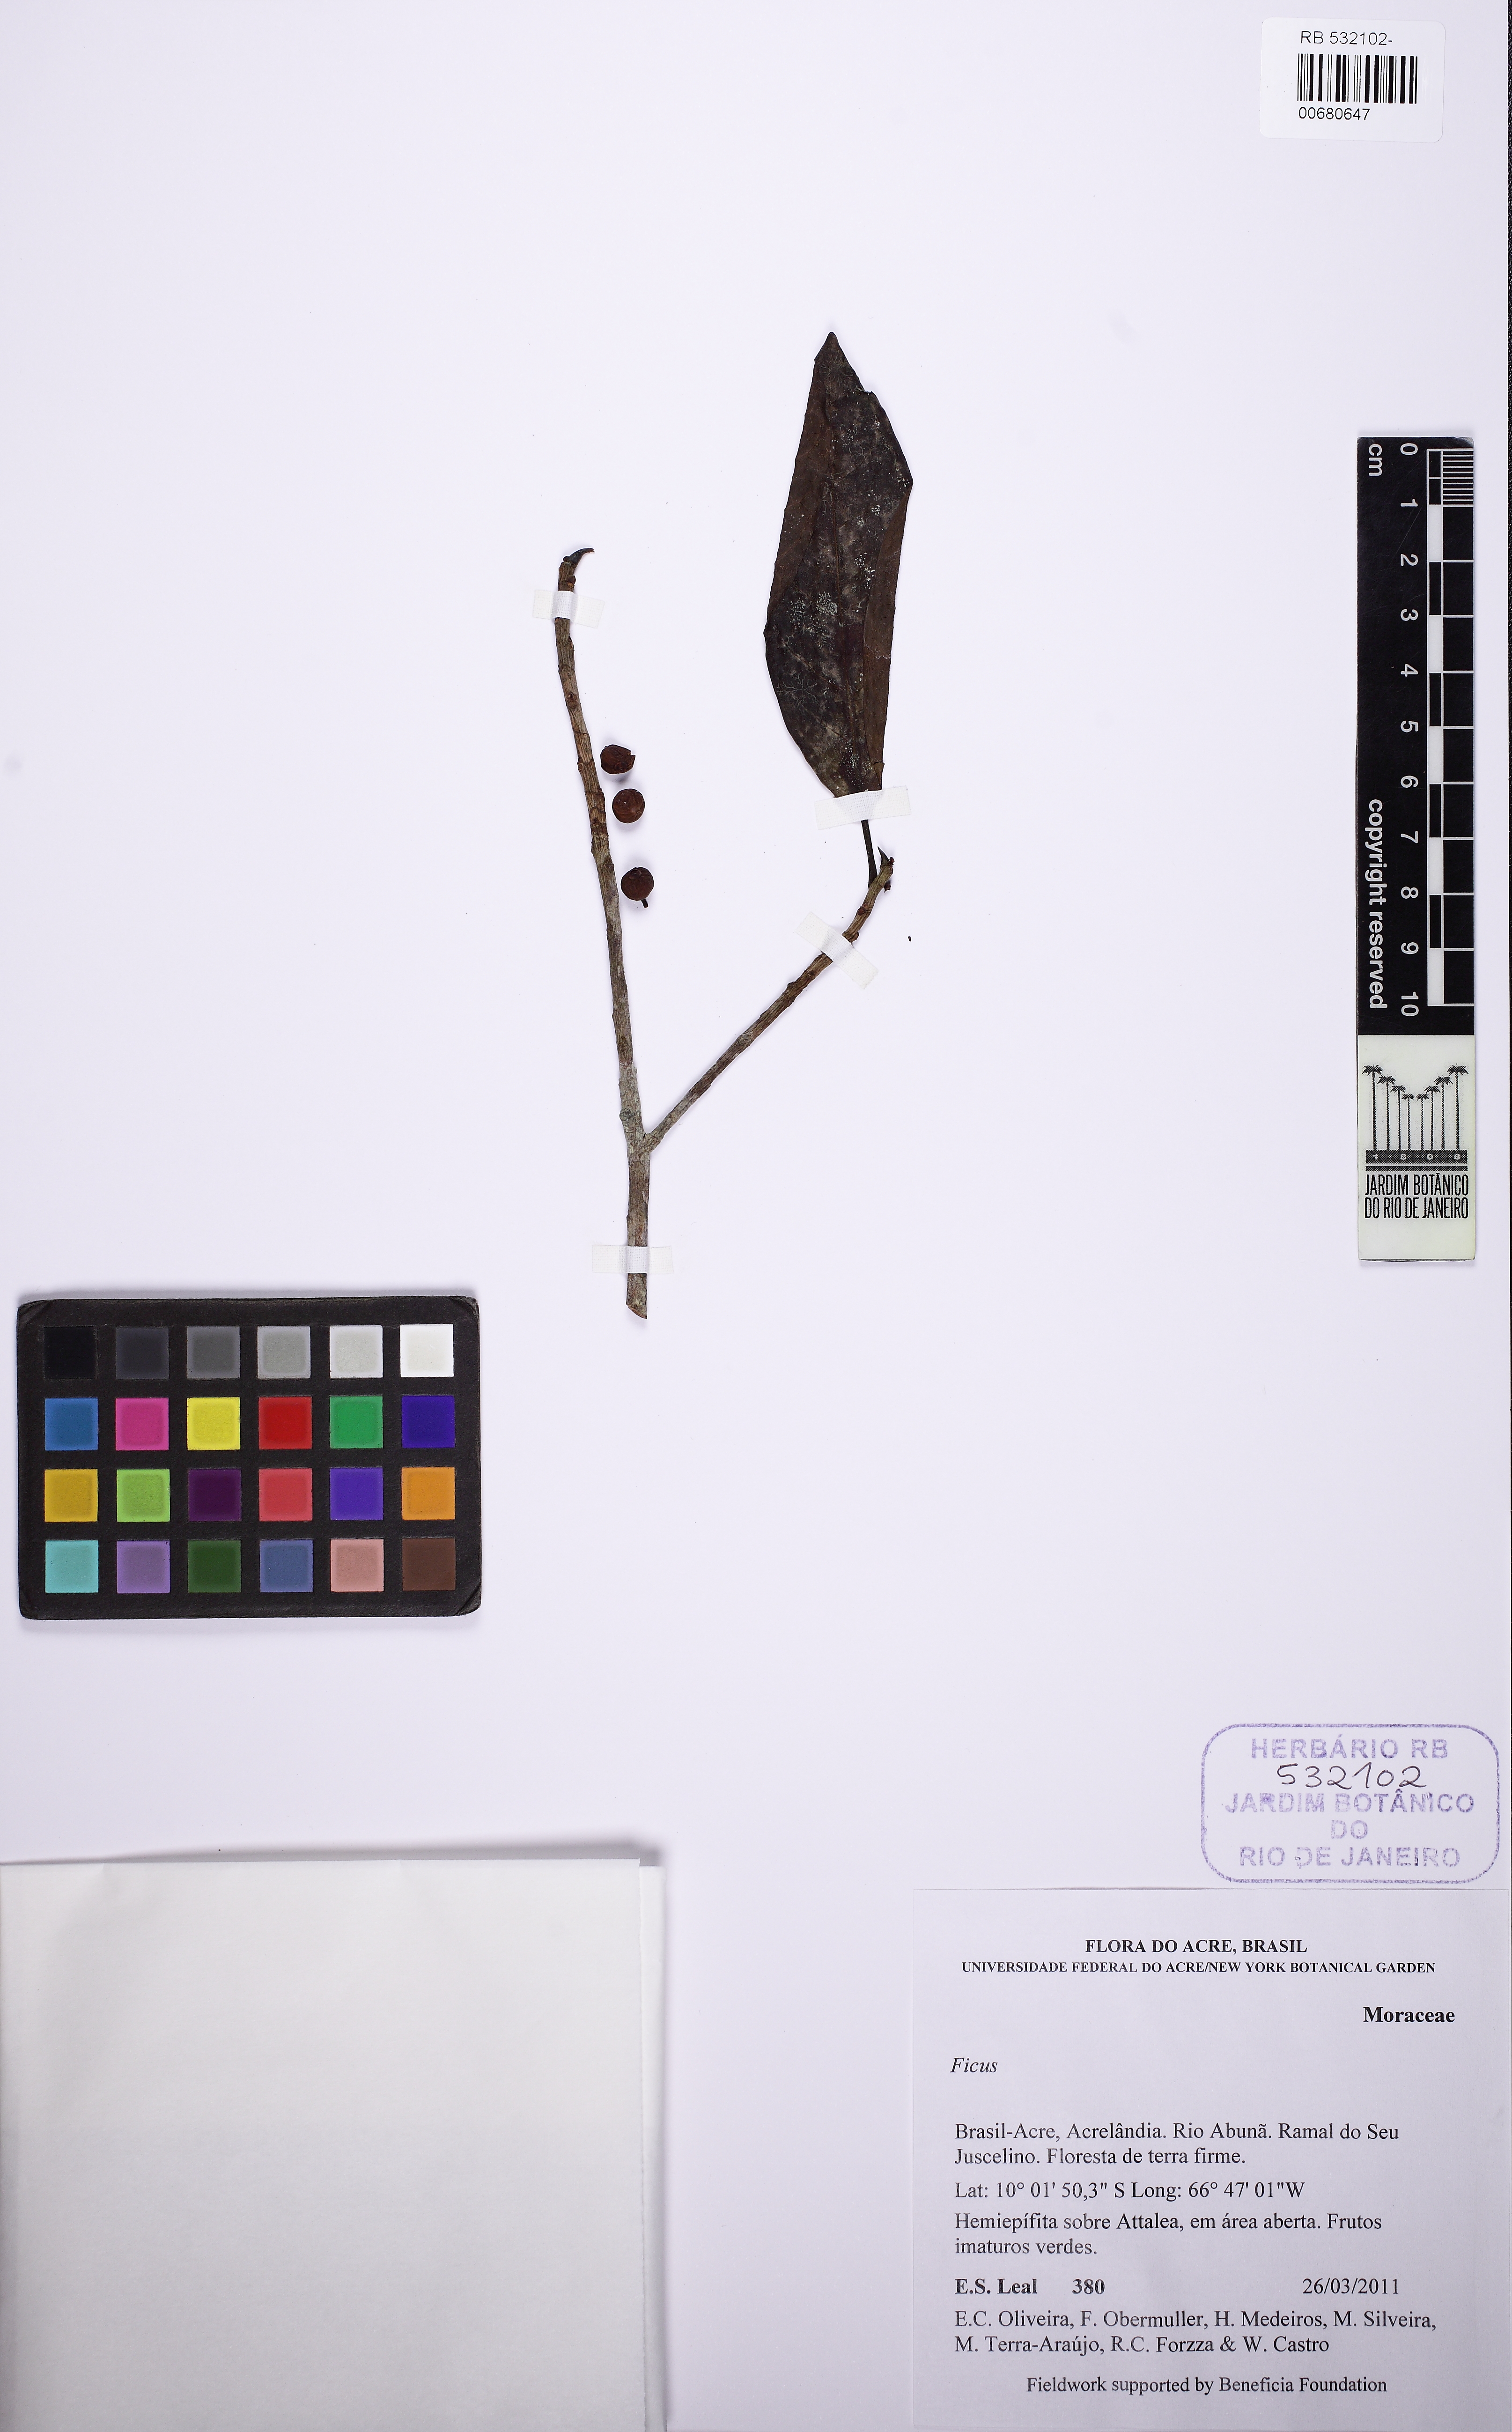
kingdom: Plantae
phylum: Tracheophyta
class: Magnoliopsida
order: Rosales
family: Moraceae
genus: Ficus
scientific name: Ficus
